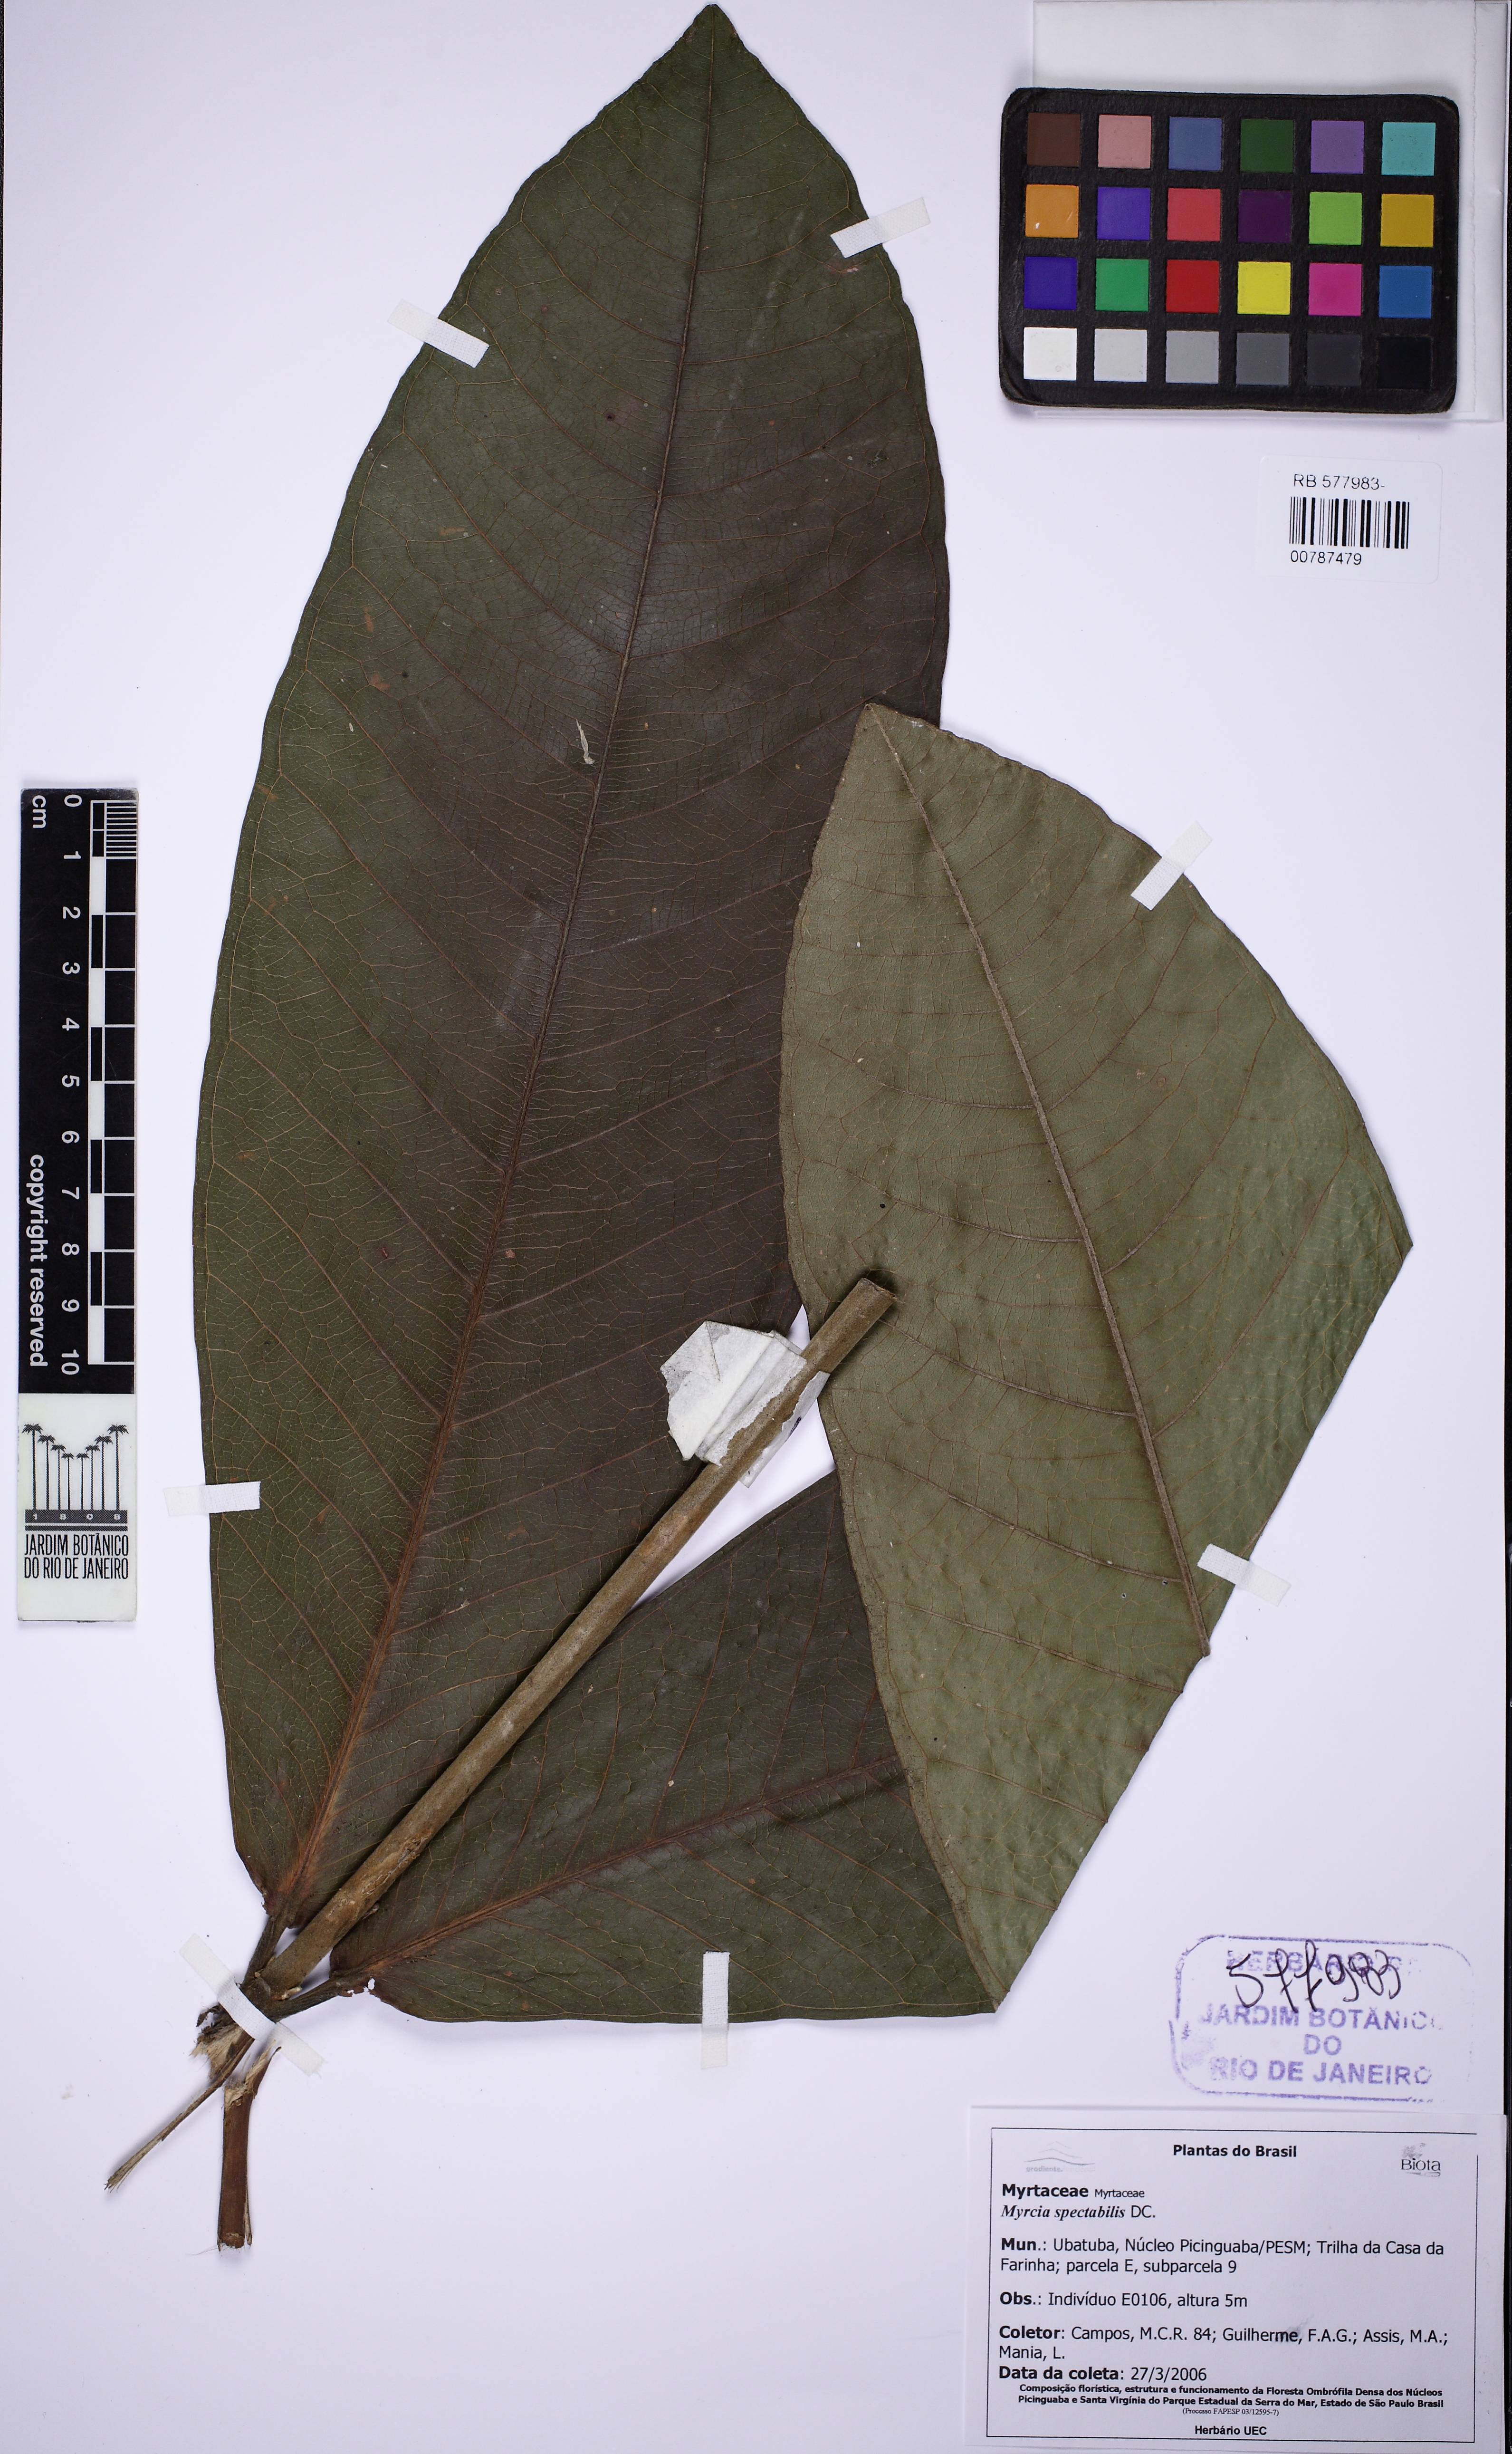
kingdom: Plantae
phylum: Tracheophyta
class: Magnoliopsida
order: Myrtales
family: Myrtaceae
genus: Myrcia
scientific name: Myrcia spectabilis
